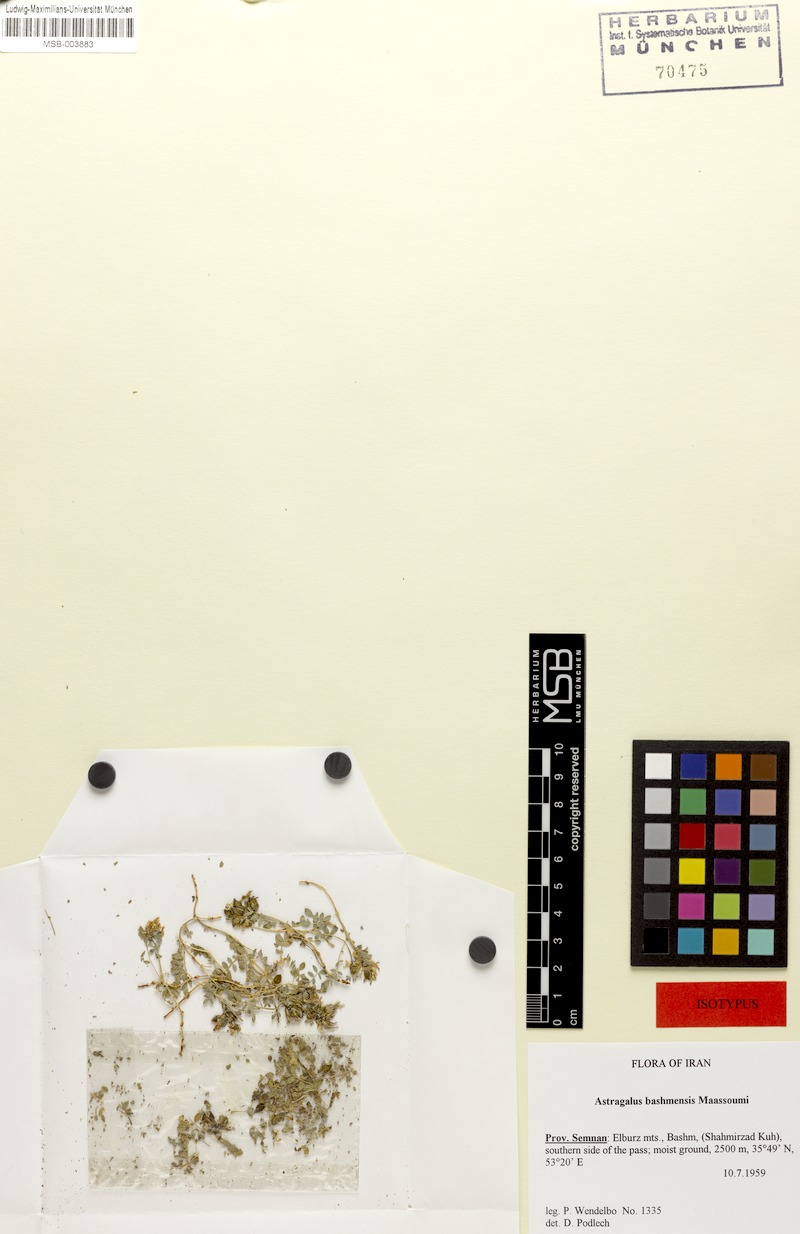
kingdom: Plantae
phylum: Tracheophyta
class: Magnoliopsida
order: Fabales
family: Fabaceae
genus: Astragalus
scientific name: Astragalus bashmensis
